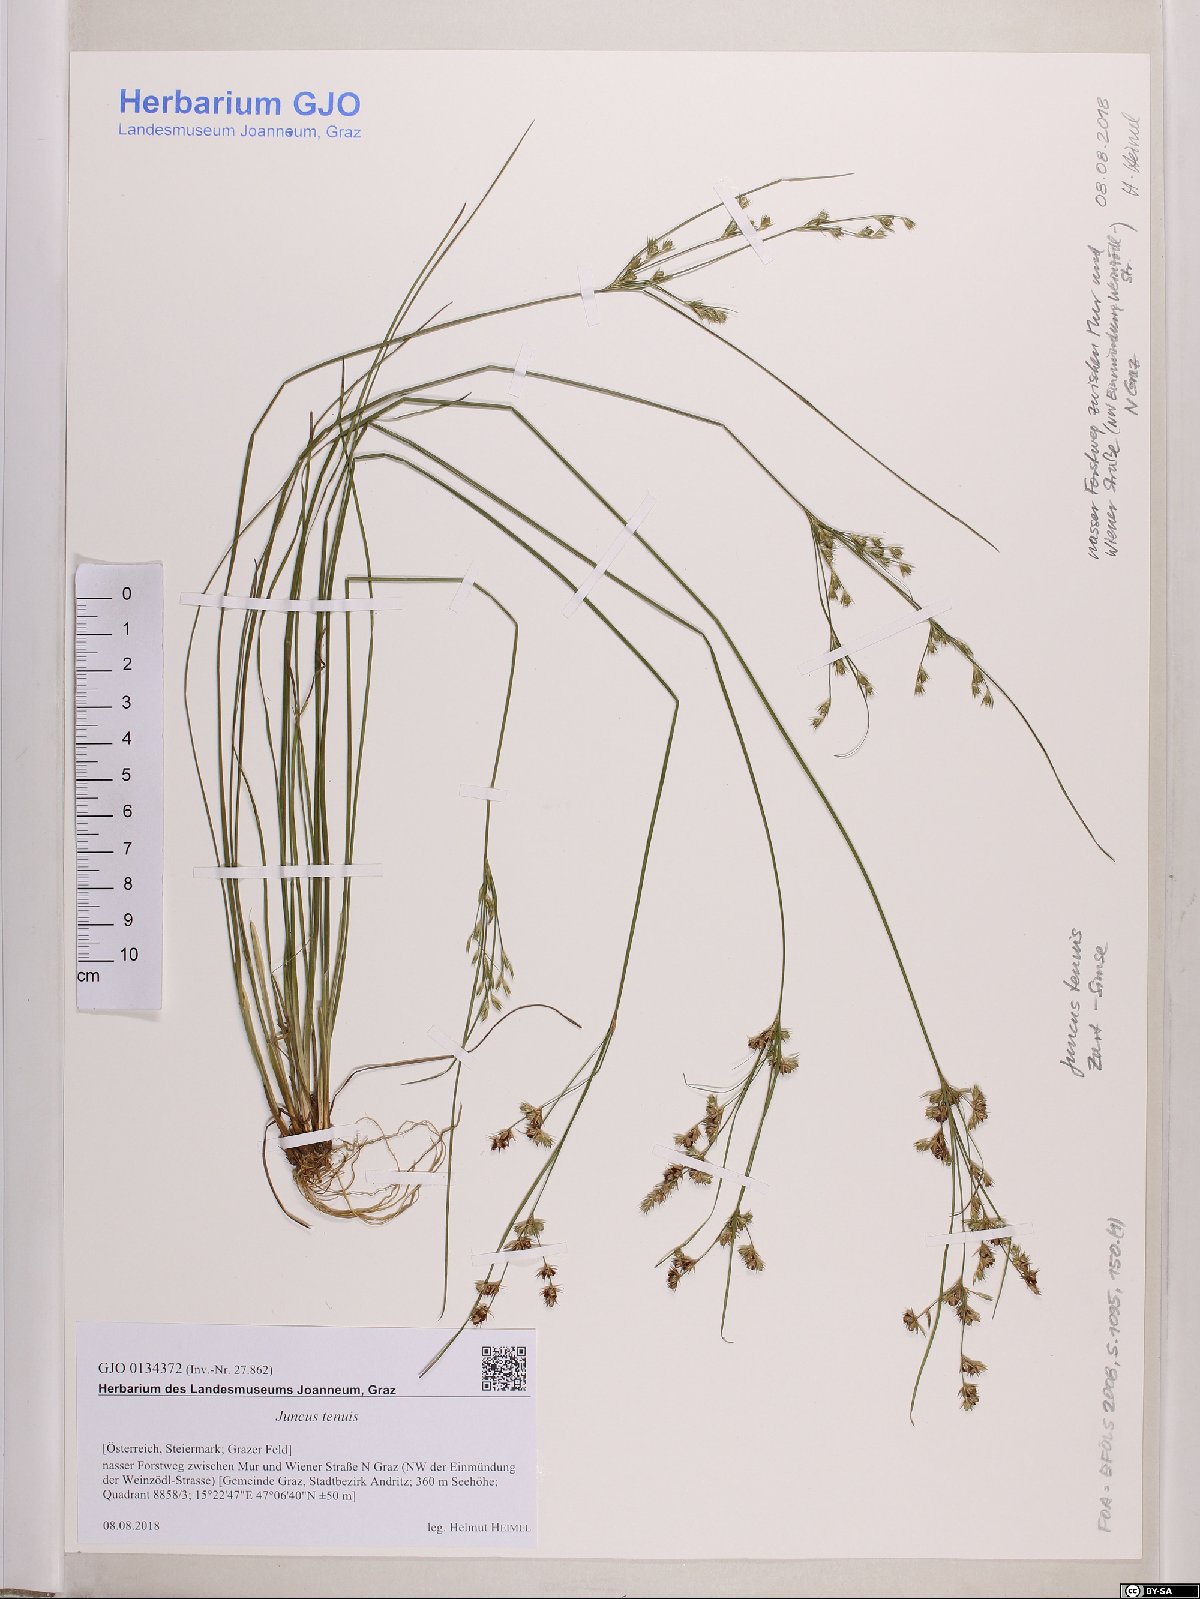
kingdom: Plantae
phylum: Tracheophyta
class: Liliopsida
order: Poales
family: Juncaceae
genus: Juncus
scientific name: Juncus tenuis
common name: Slender rush
